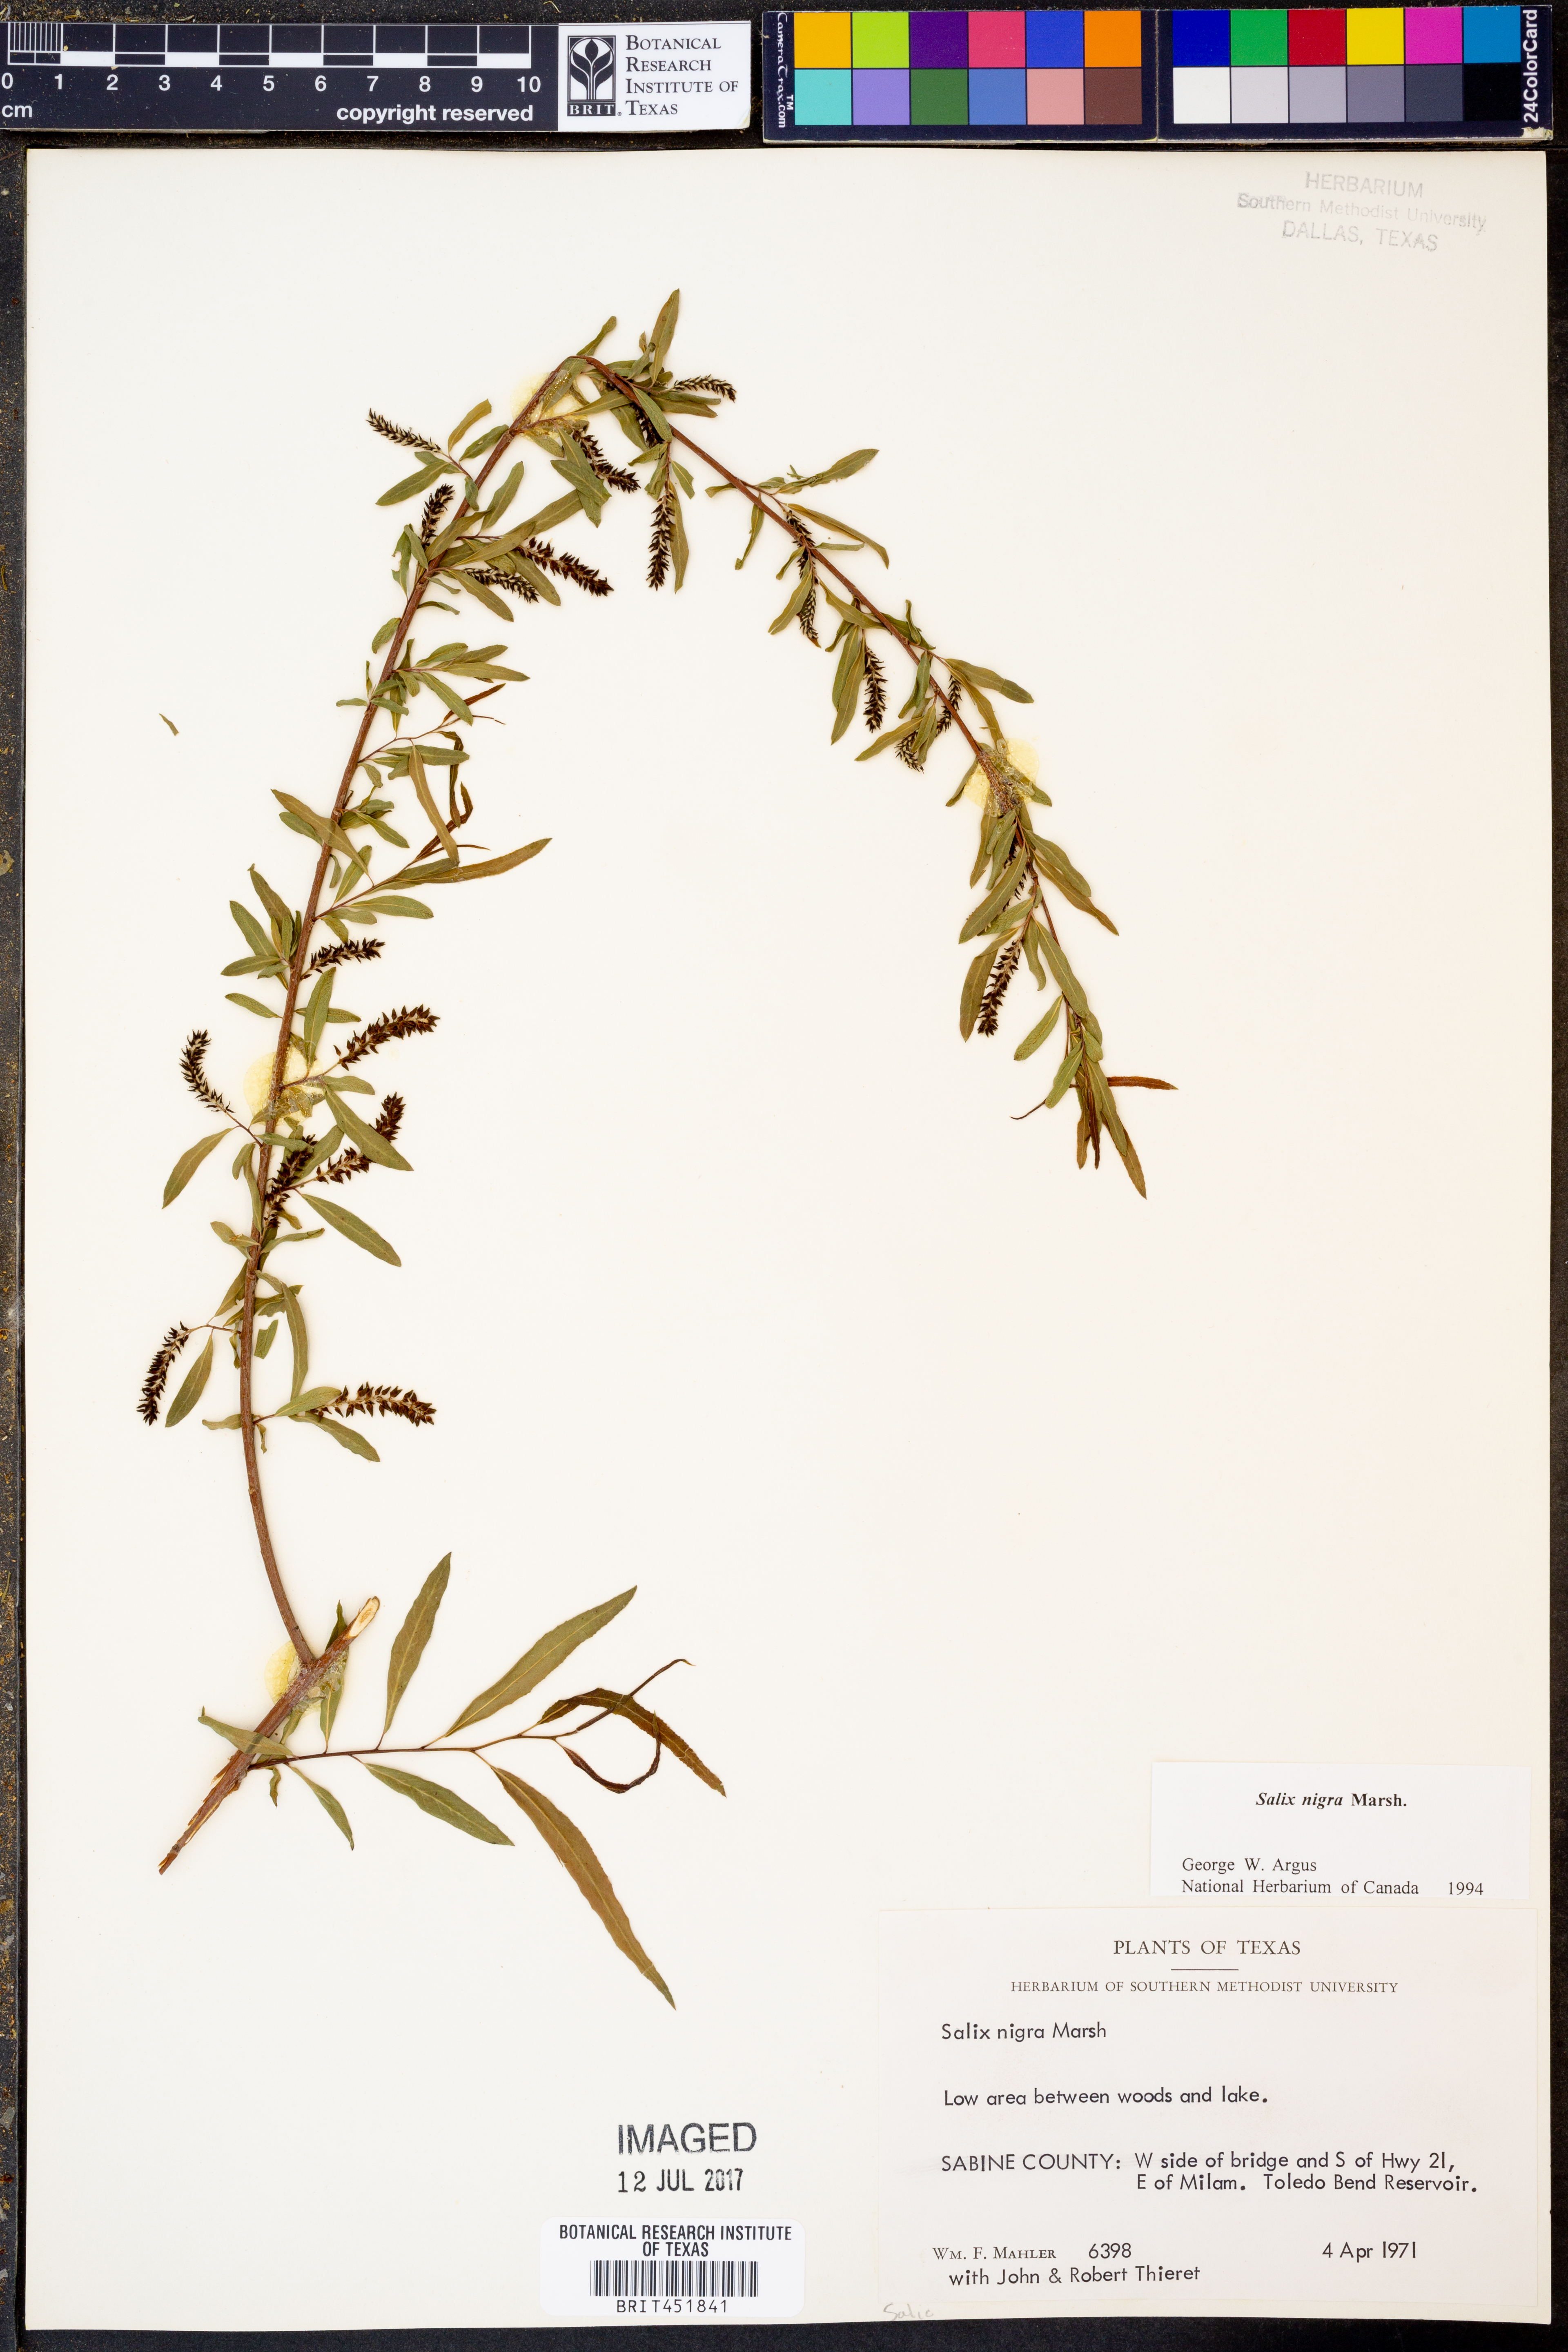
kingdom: Plantae
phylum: Tracheophyta
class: Magnoliopsida
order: Malpighiales
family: Salicaceae
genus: Salix
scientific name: Salix nigra
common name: Black willow
